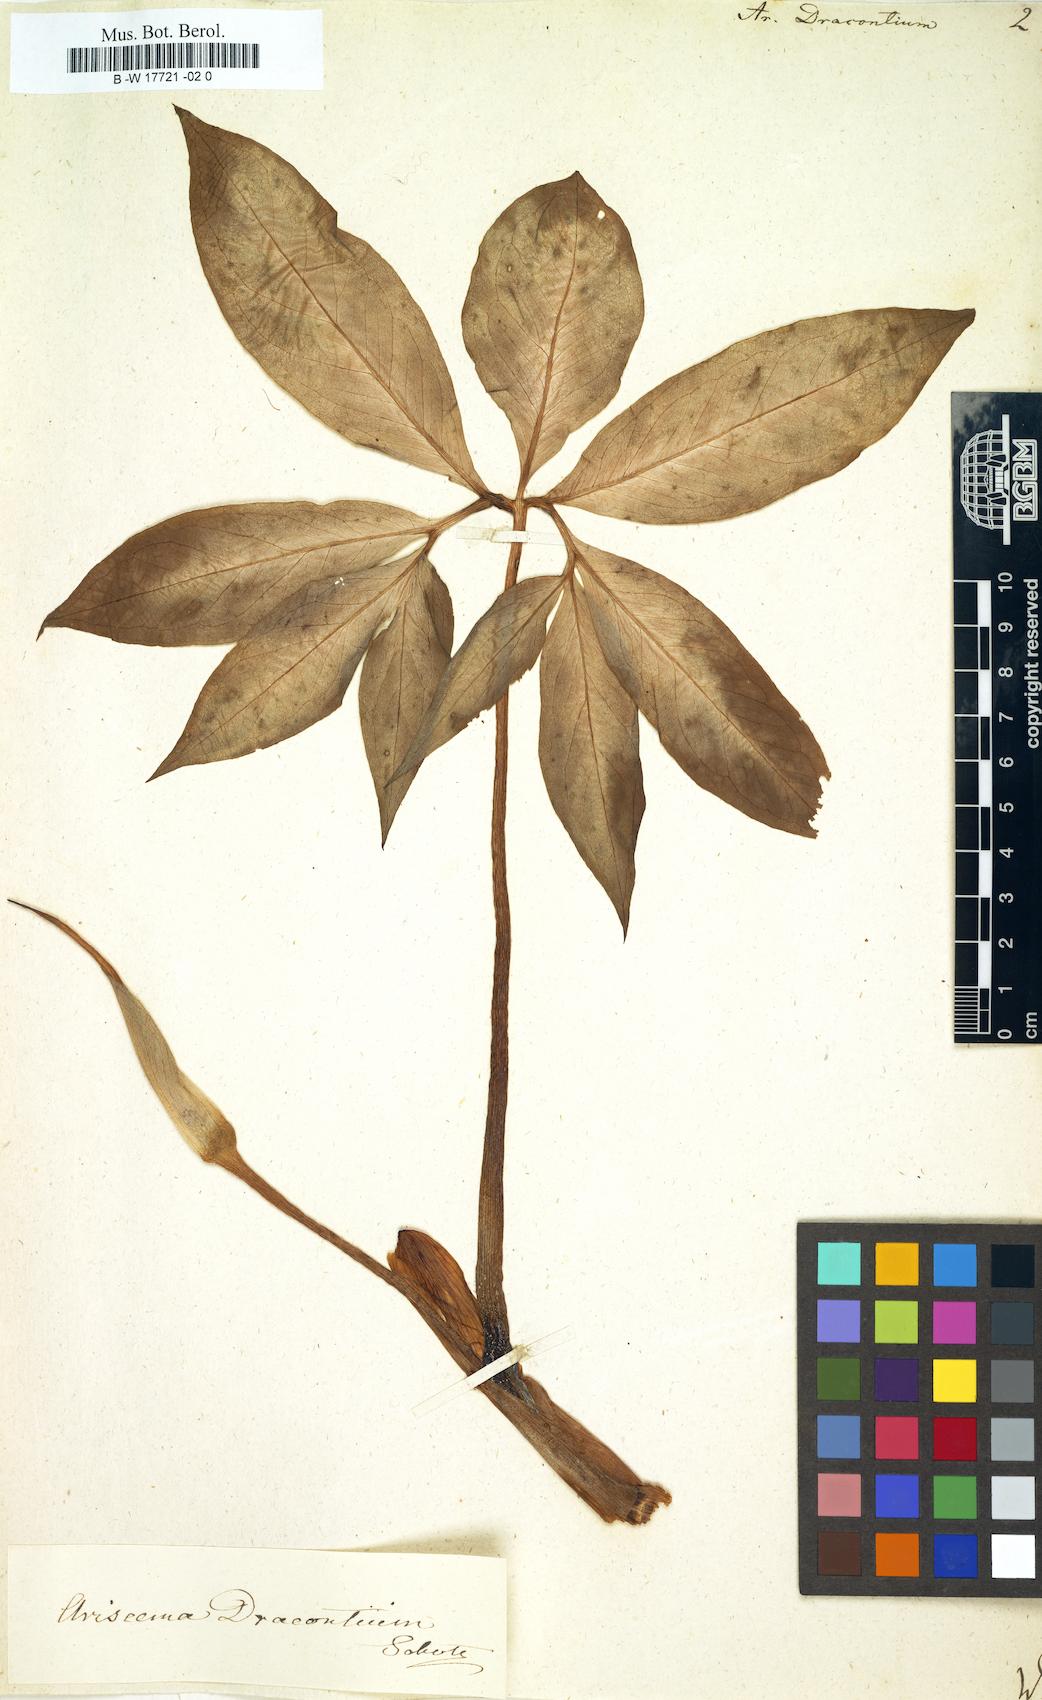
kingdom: Plantae
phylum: Tracheophyta
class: Liliopsida
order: Alismatales
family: Araceae
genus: Arisaema
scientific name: Arisaema dracontium
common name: Dragon-arum
